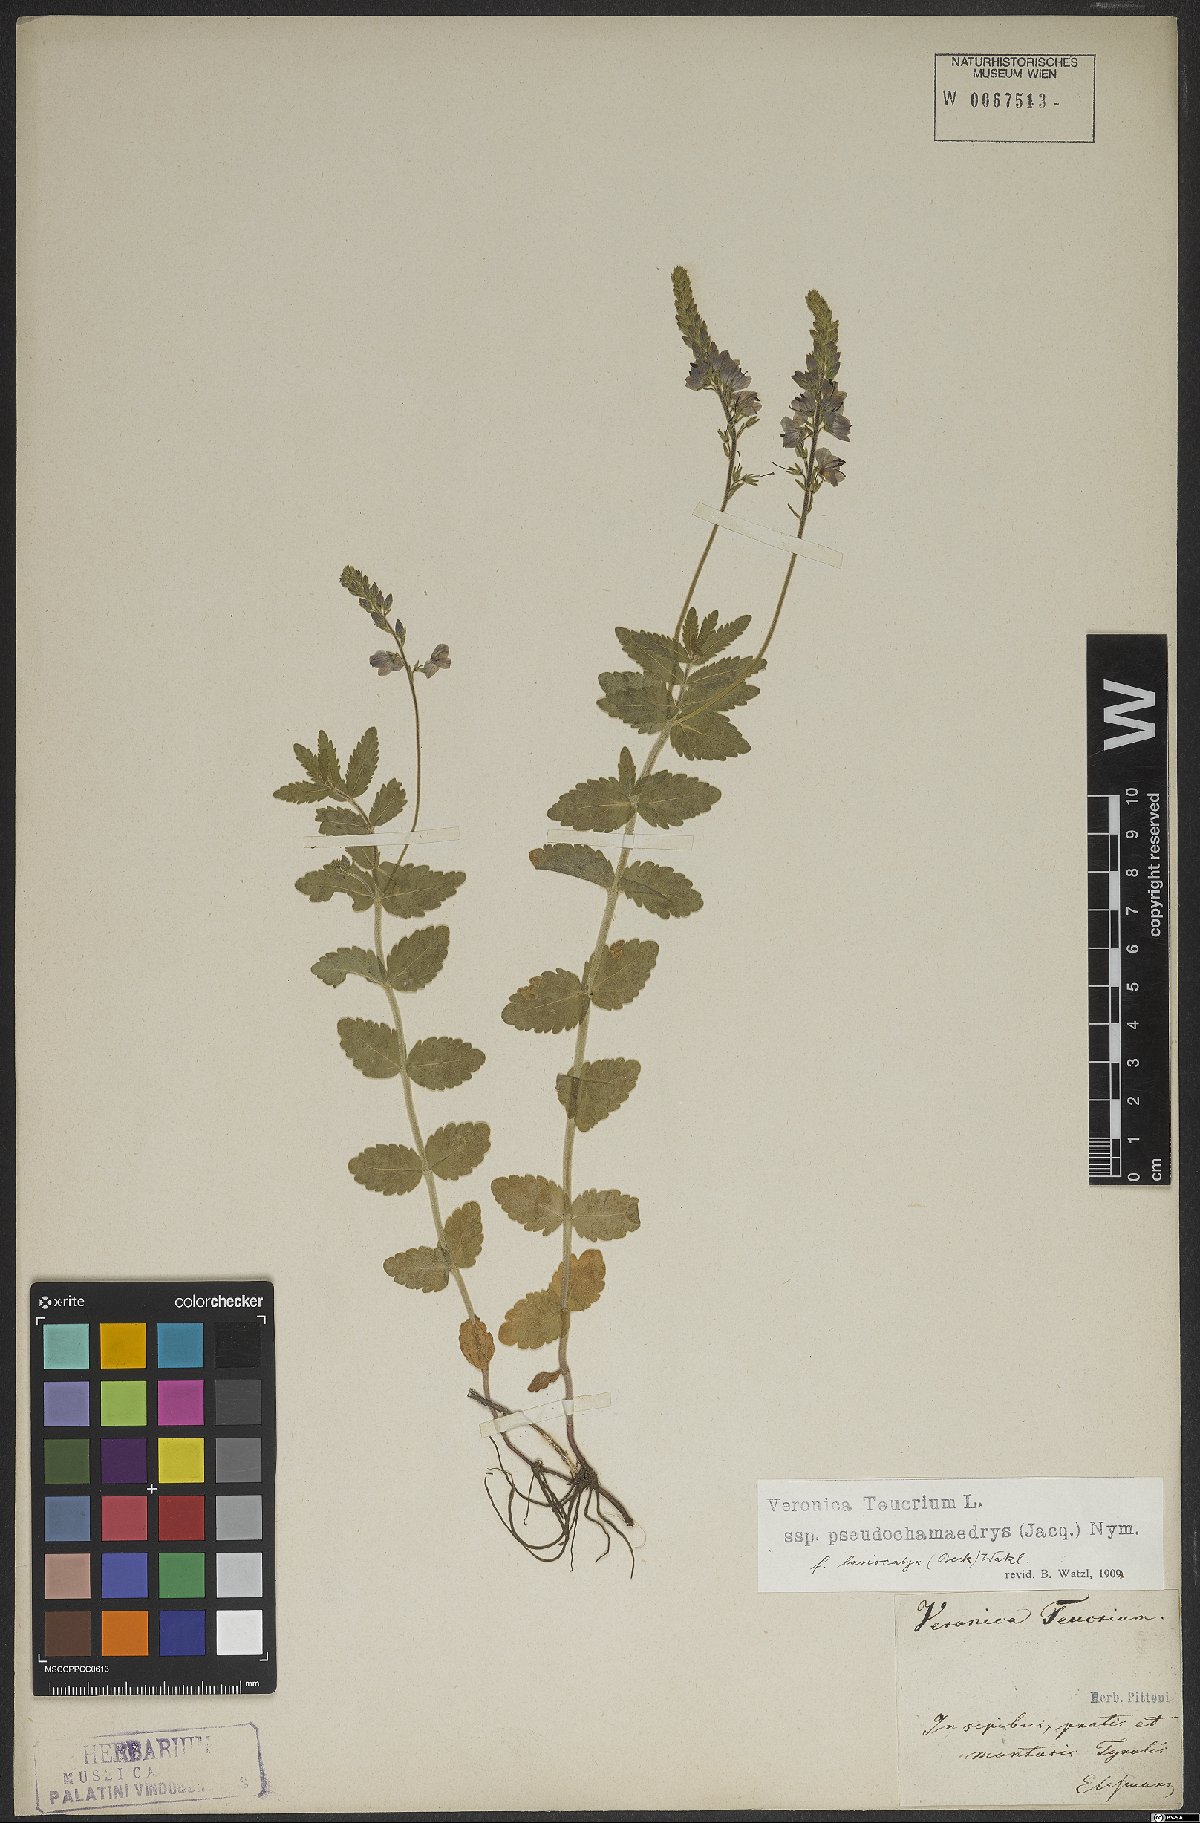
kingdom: Plantae
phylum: Tracheophyta
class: Magnoliopsida
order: Lamiales
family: Plantaginaceae
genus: Veronica
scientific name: Veronica teucrium
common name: Large speedwell
